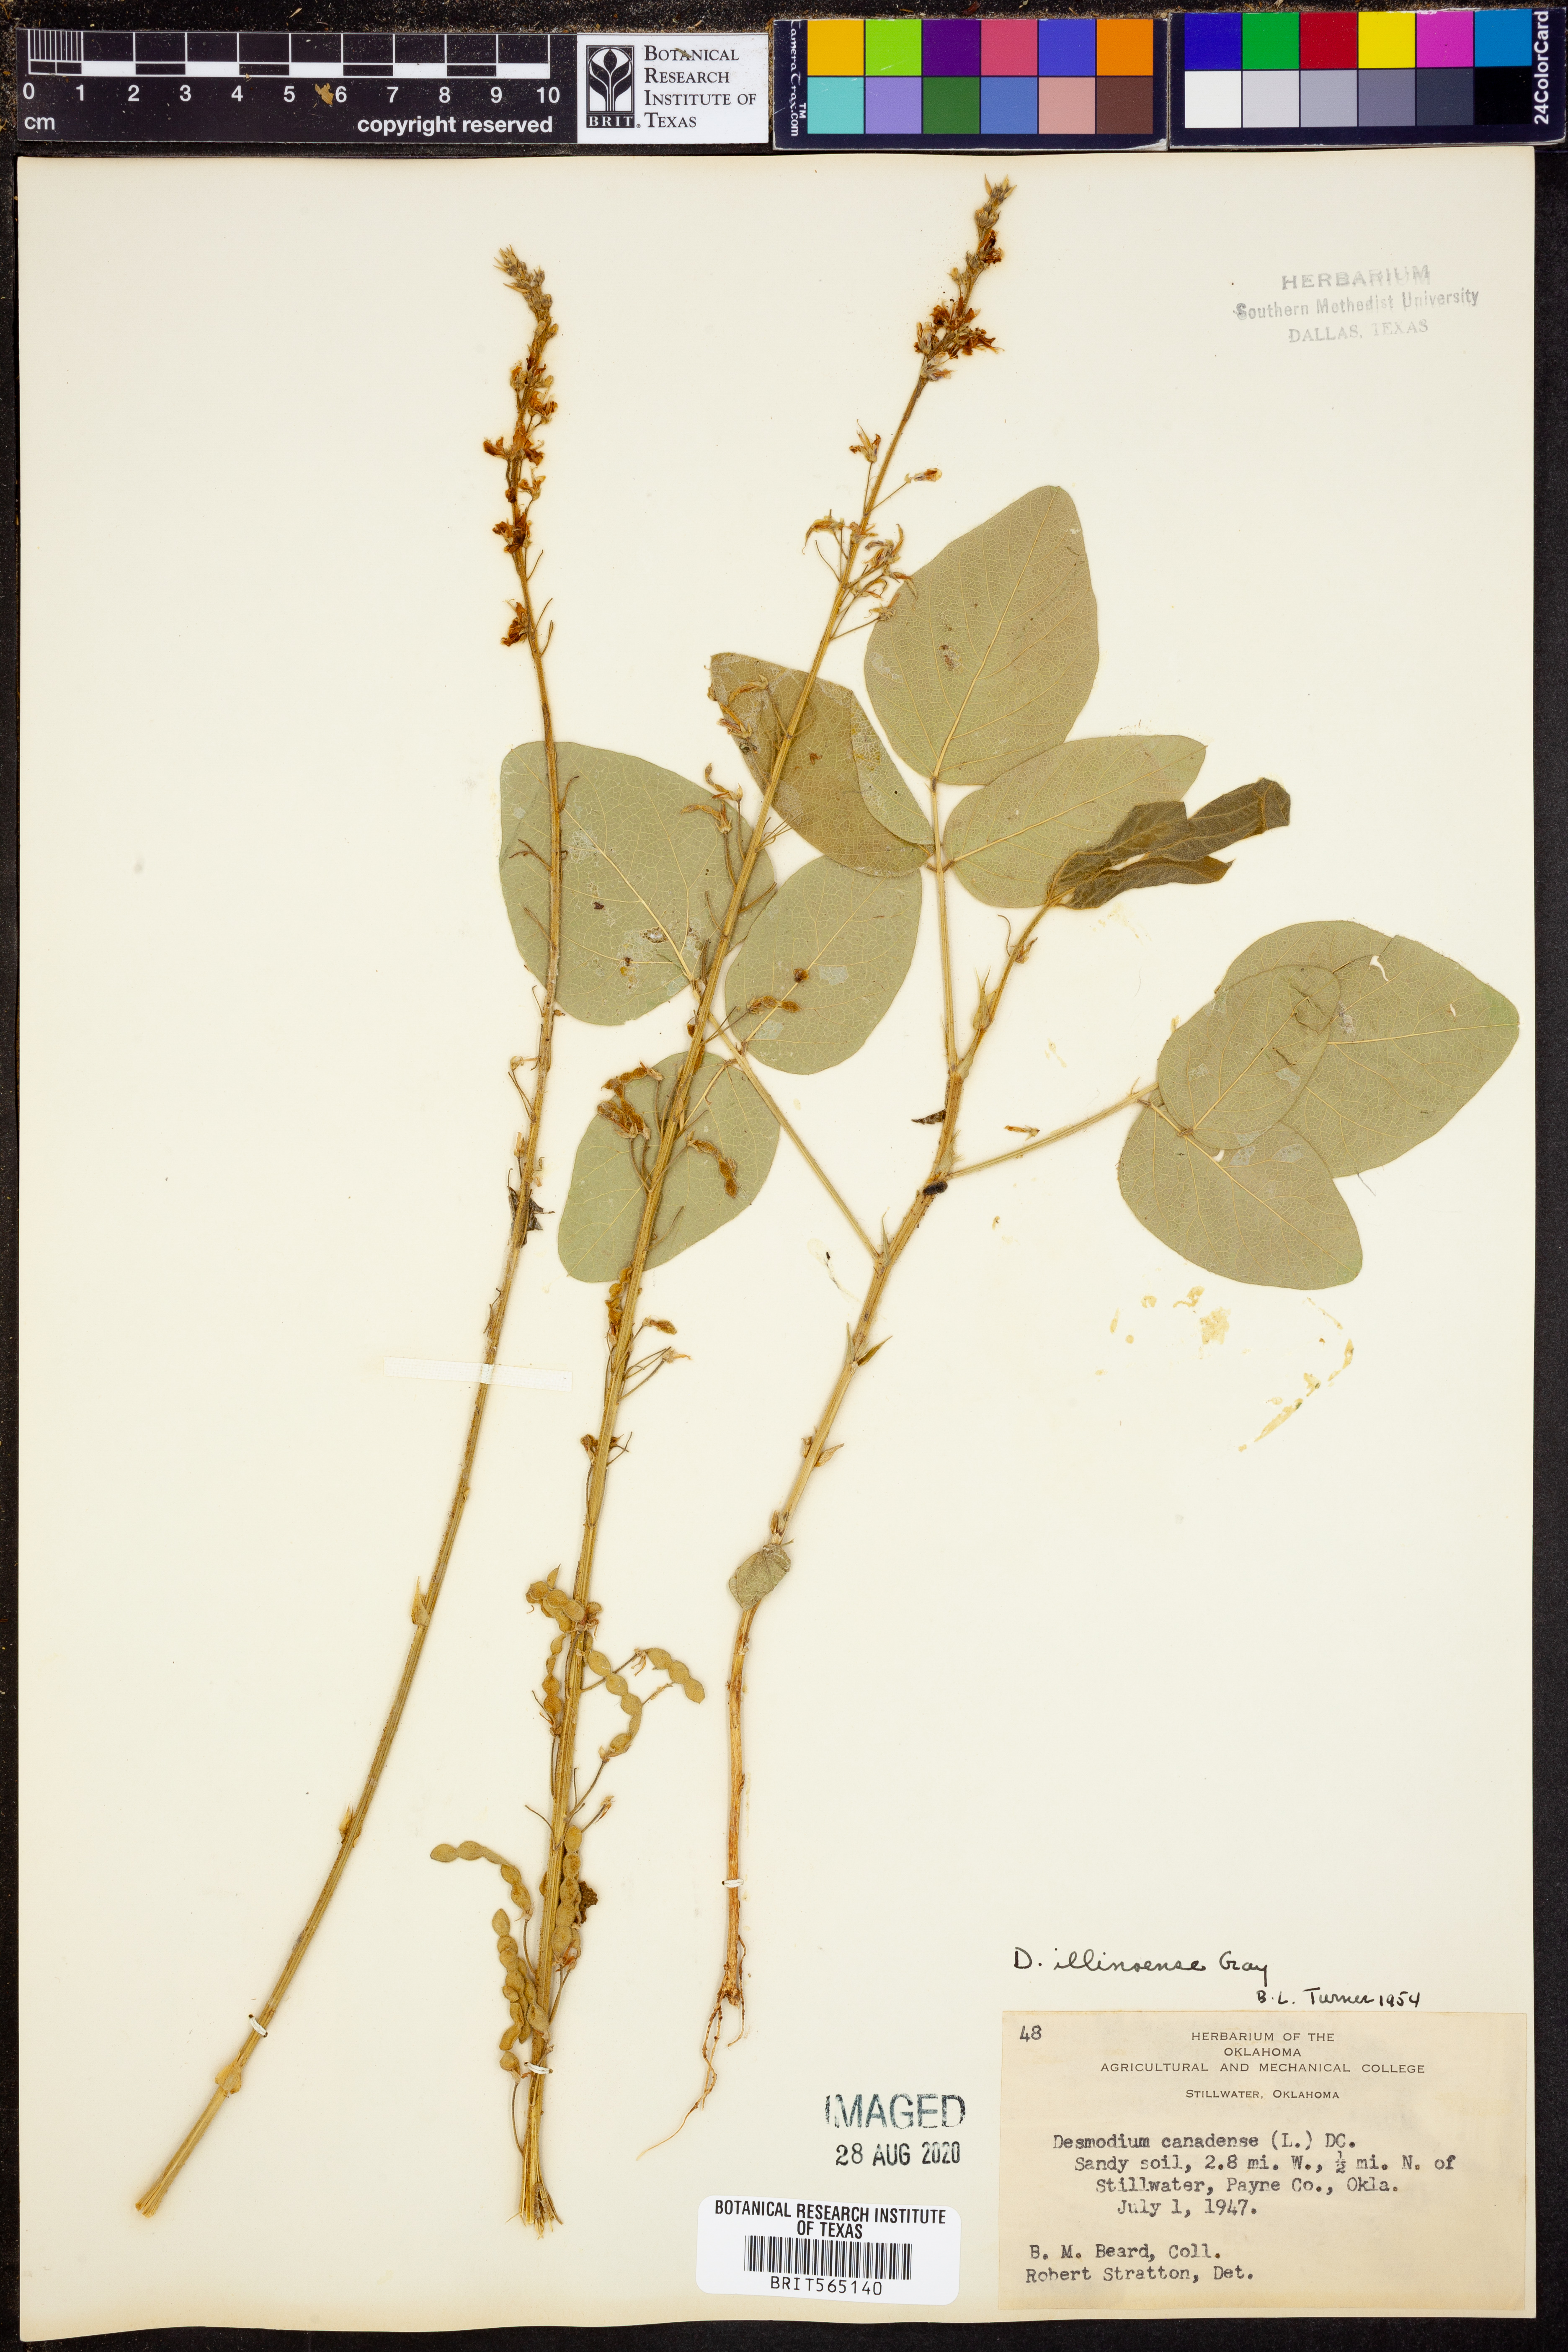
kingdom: Plantae
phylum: Tracheophyta
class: Magnoliopsida
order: Fabales
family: Fabaceae
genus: Desmodium
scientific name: Desmodium illinoense
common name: Illinois tick-clover
